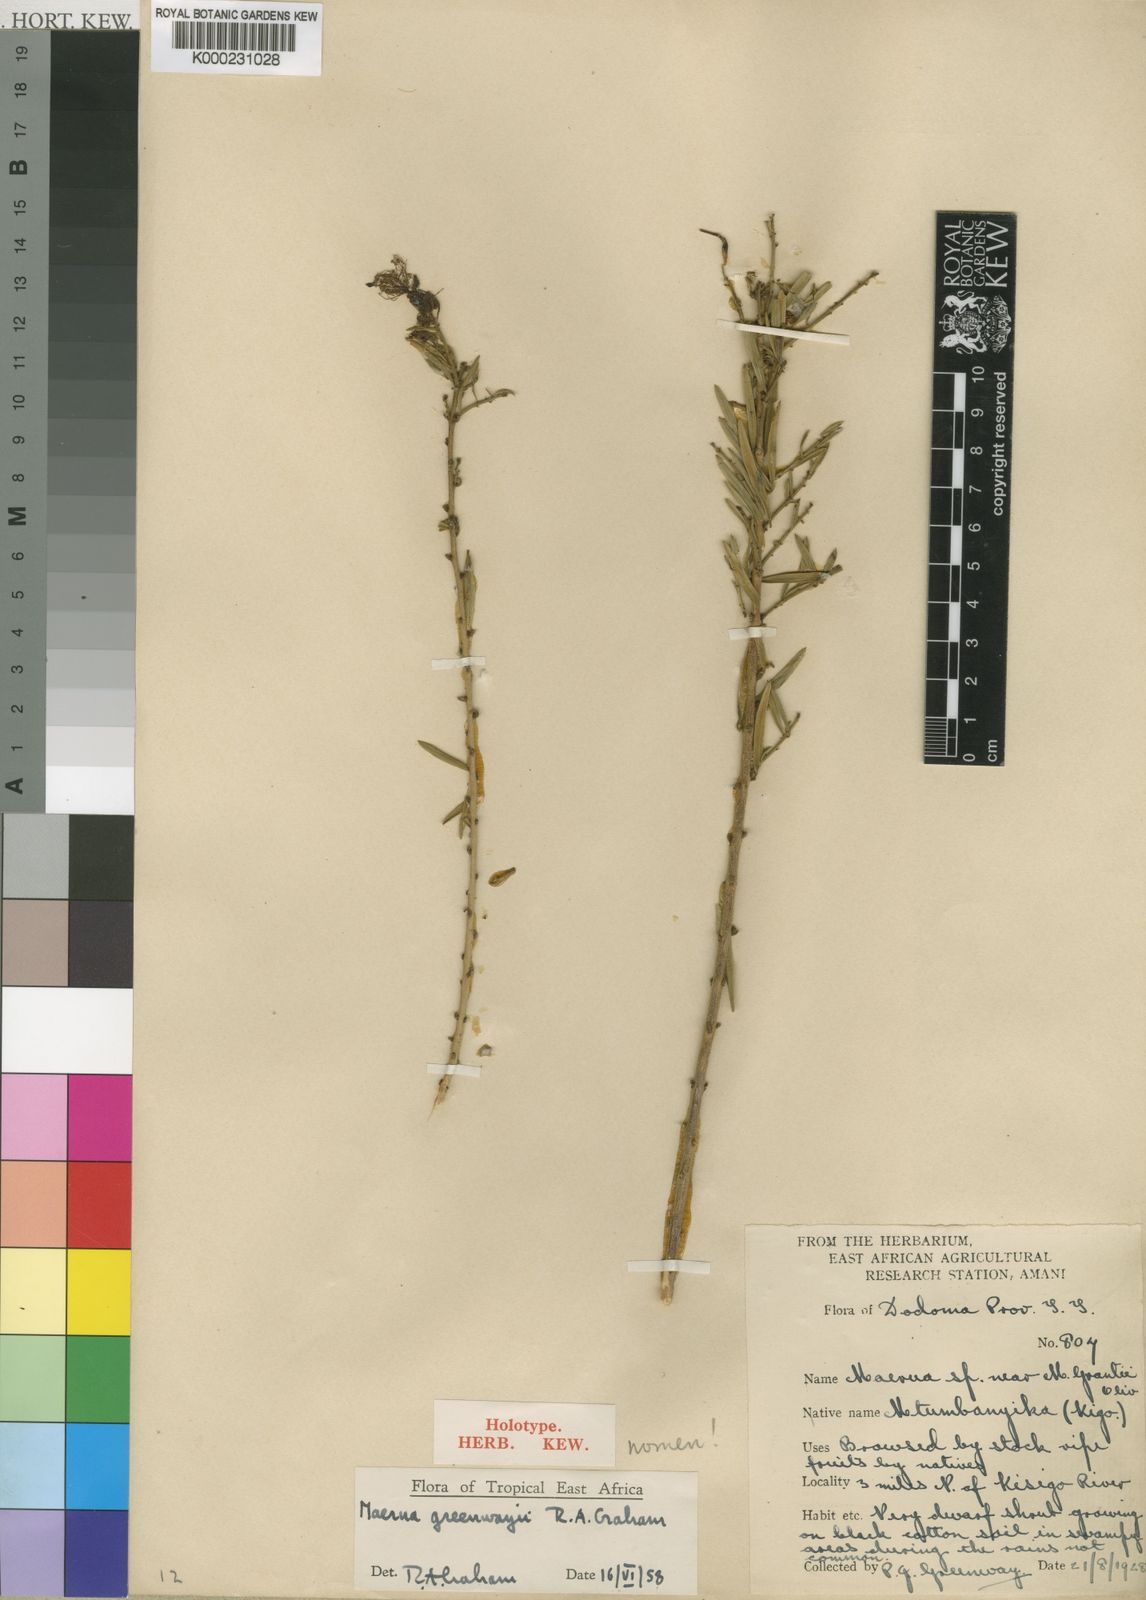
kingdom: Plantae
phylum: Tracheophyta
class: Magnoliopsida
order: Brassicales
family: Capparaceae
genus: Maerua
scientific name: Maerua
